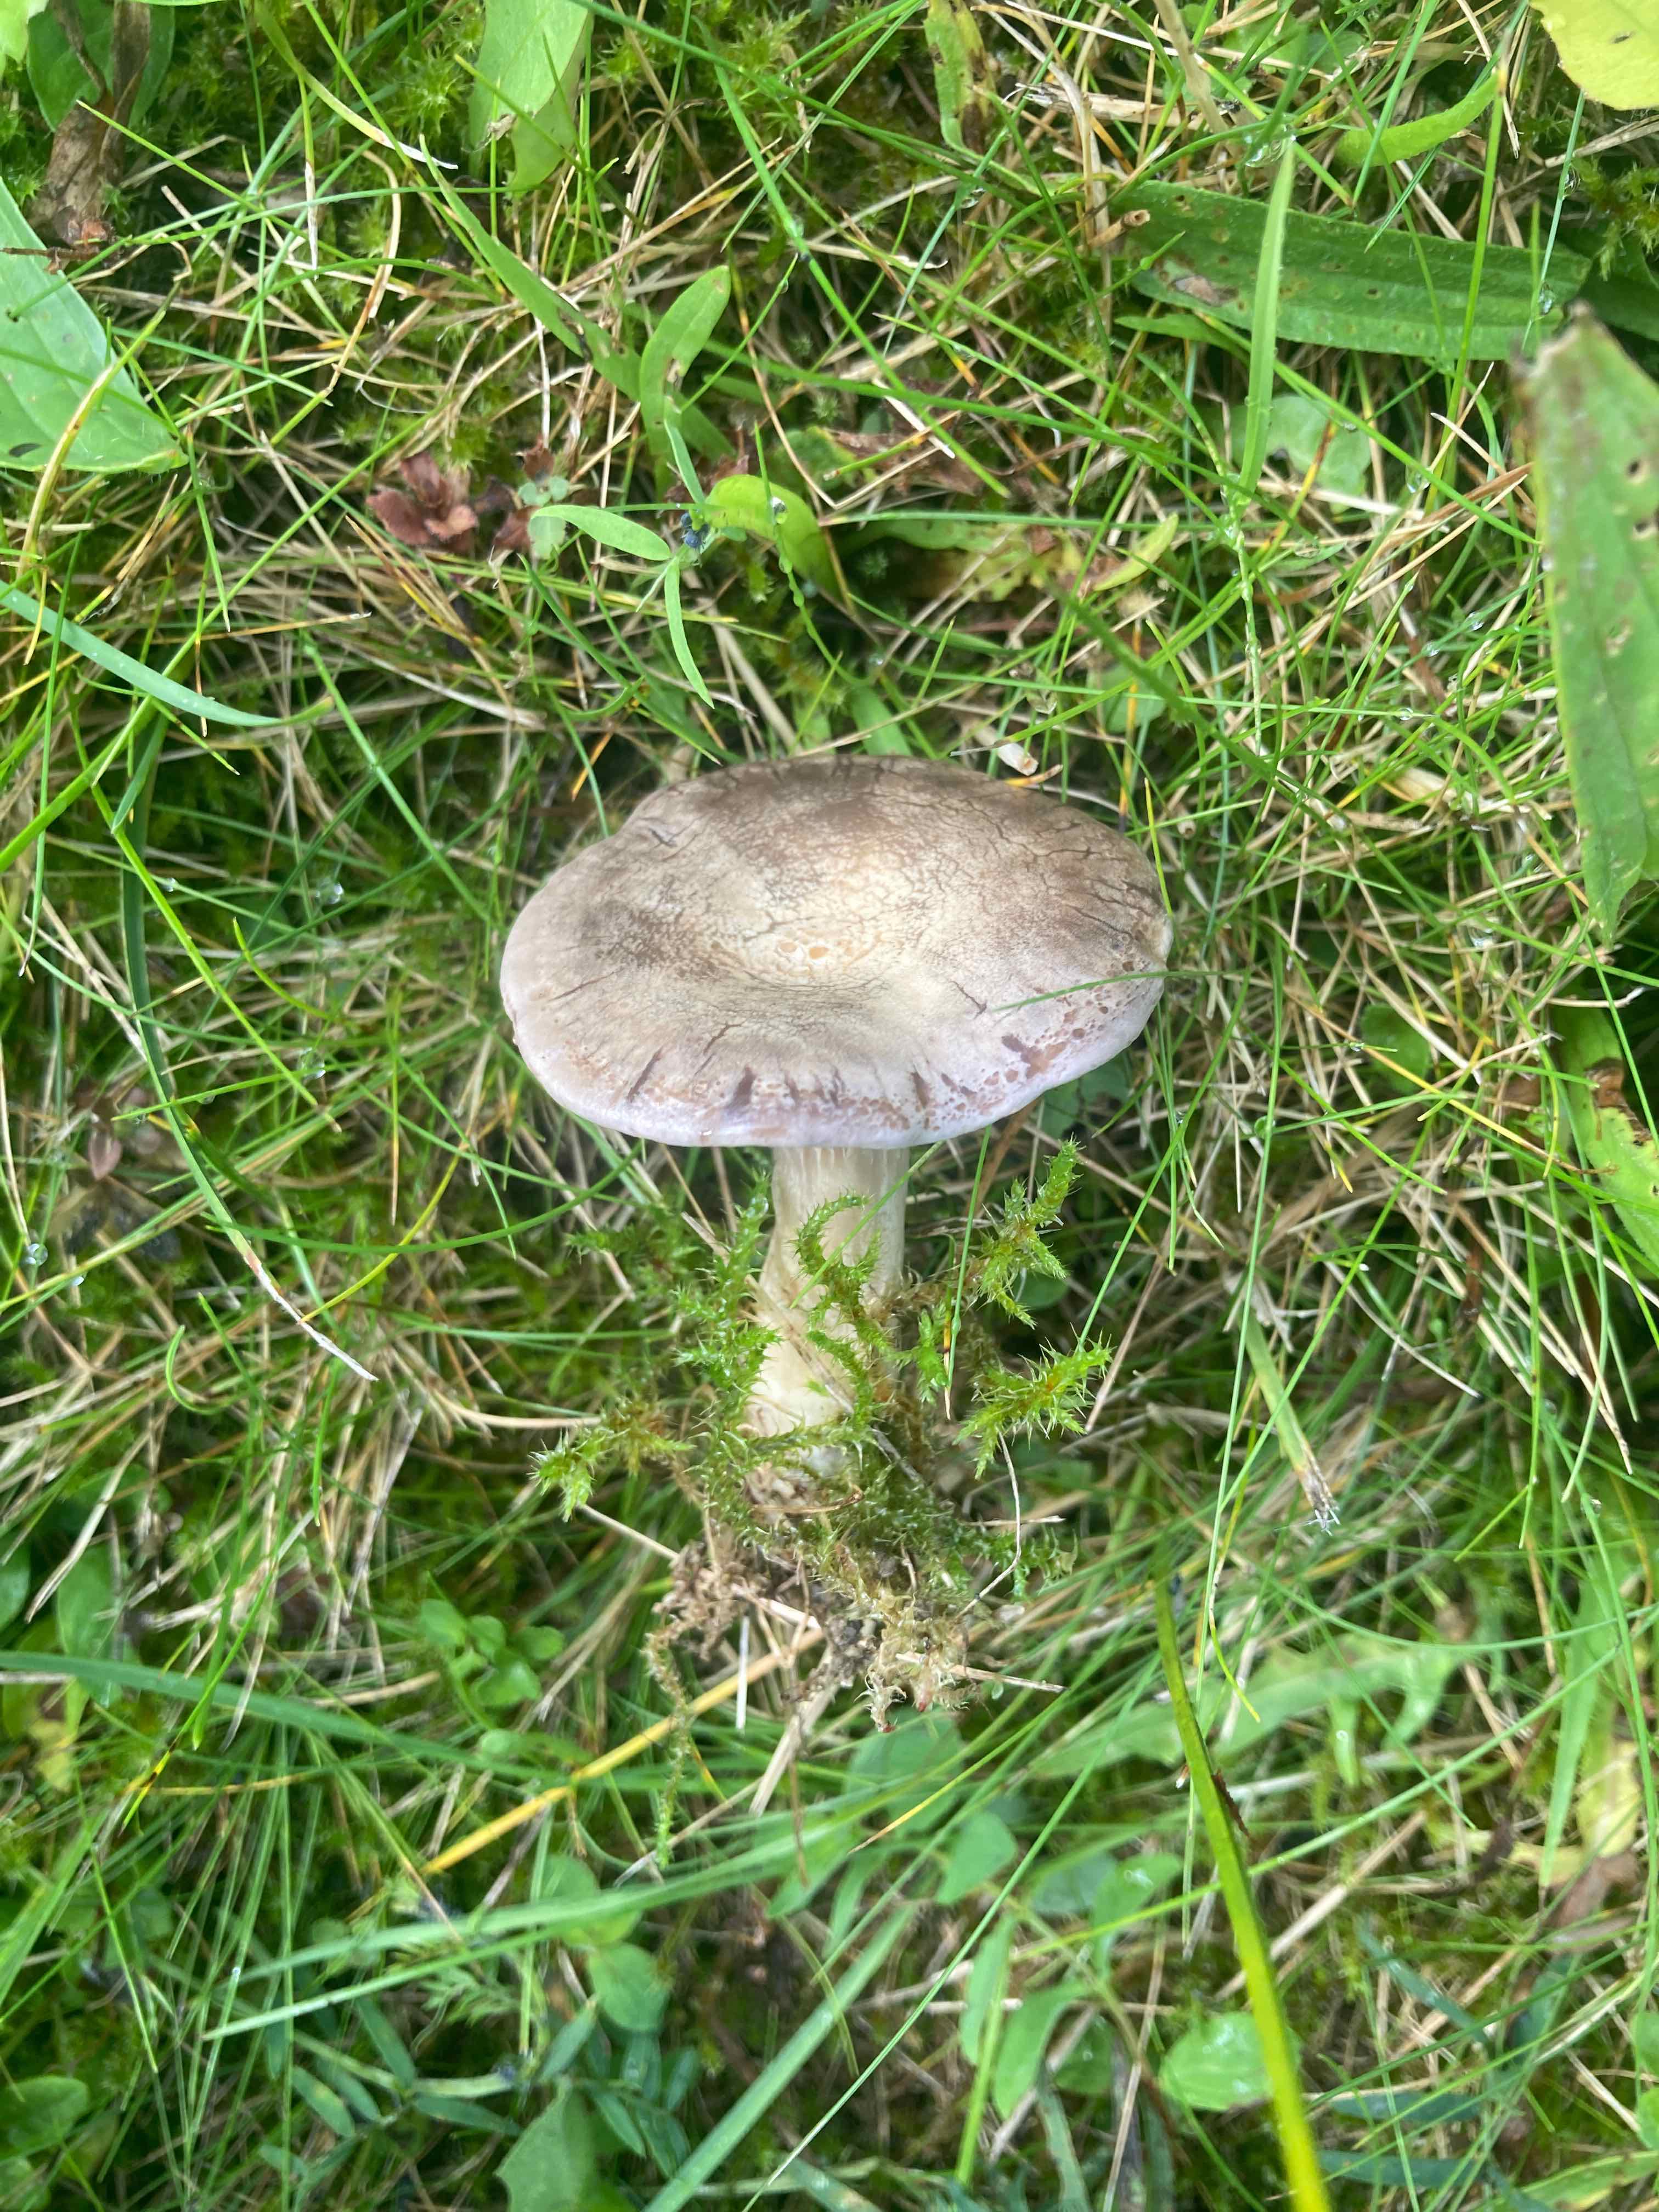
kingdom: Fungi
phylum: Basidiomycota
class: Agaricomycetes
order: Agaricales
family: Tricholomataceae
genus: Lulesia
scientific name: Lulesia
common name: sortnende troldhat
